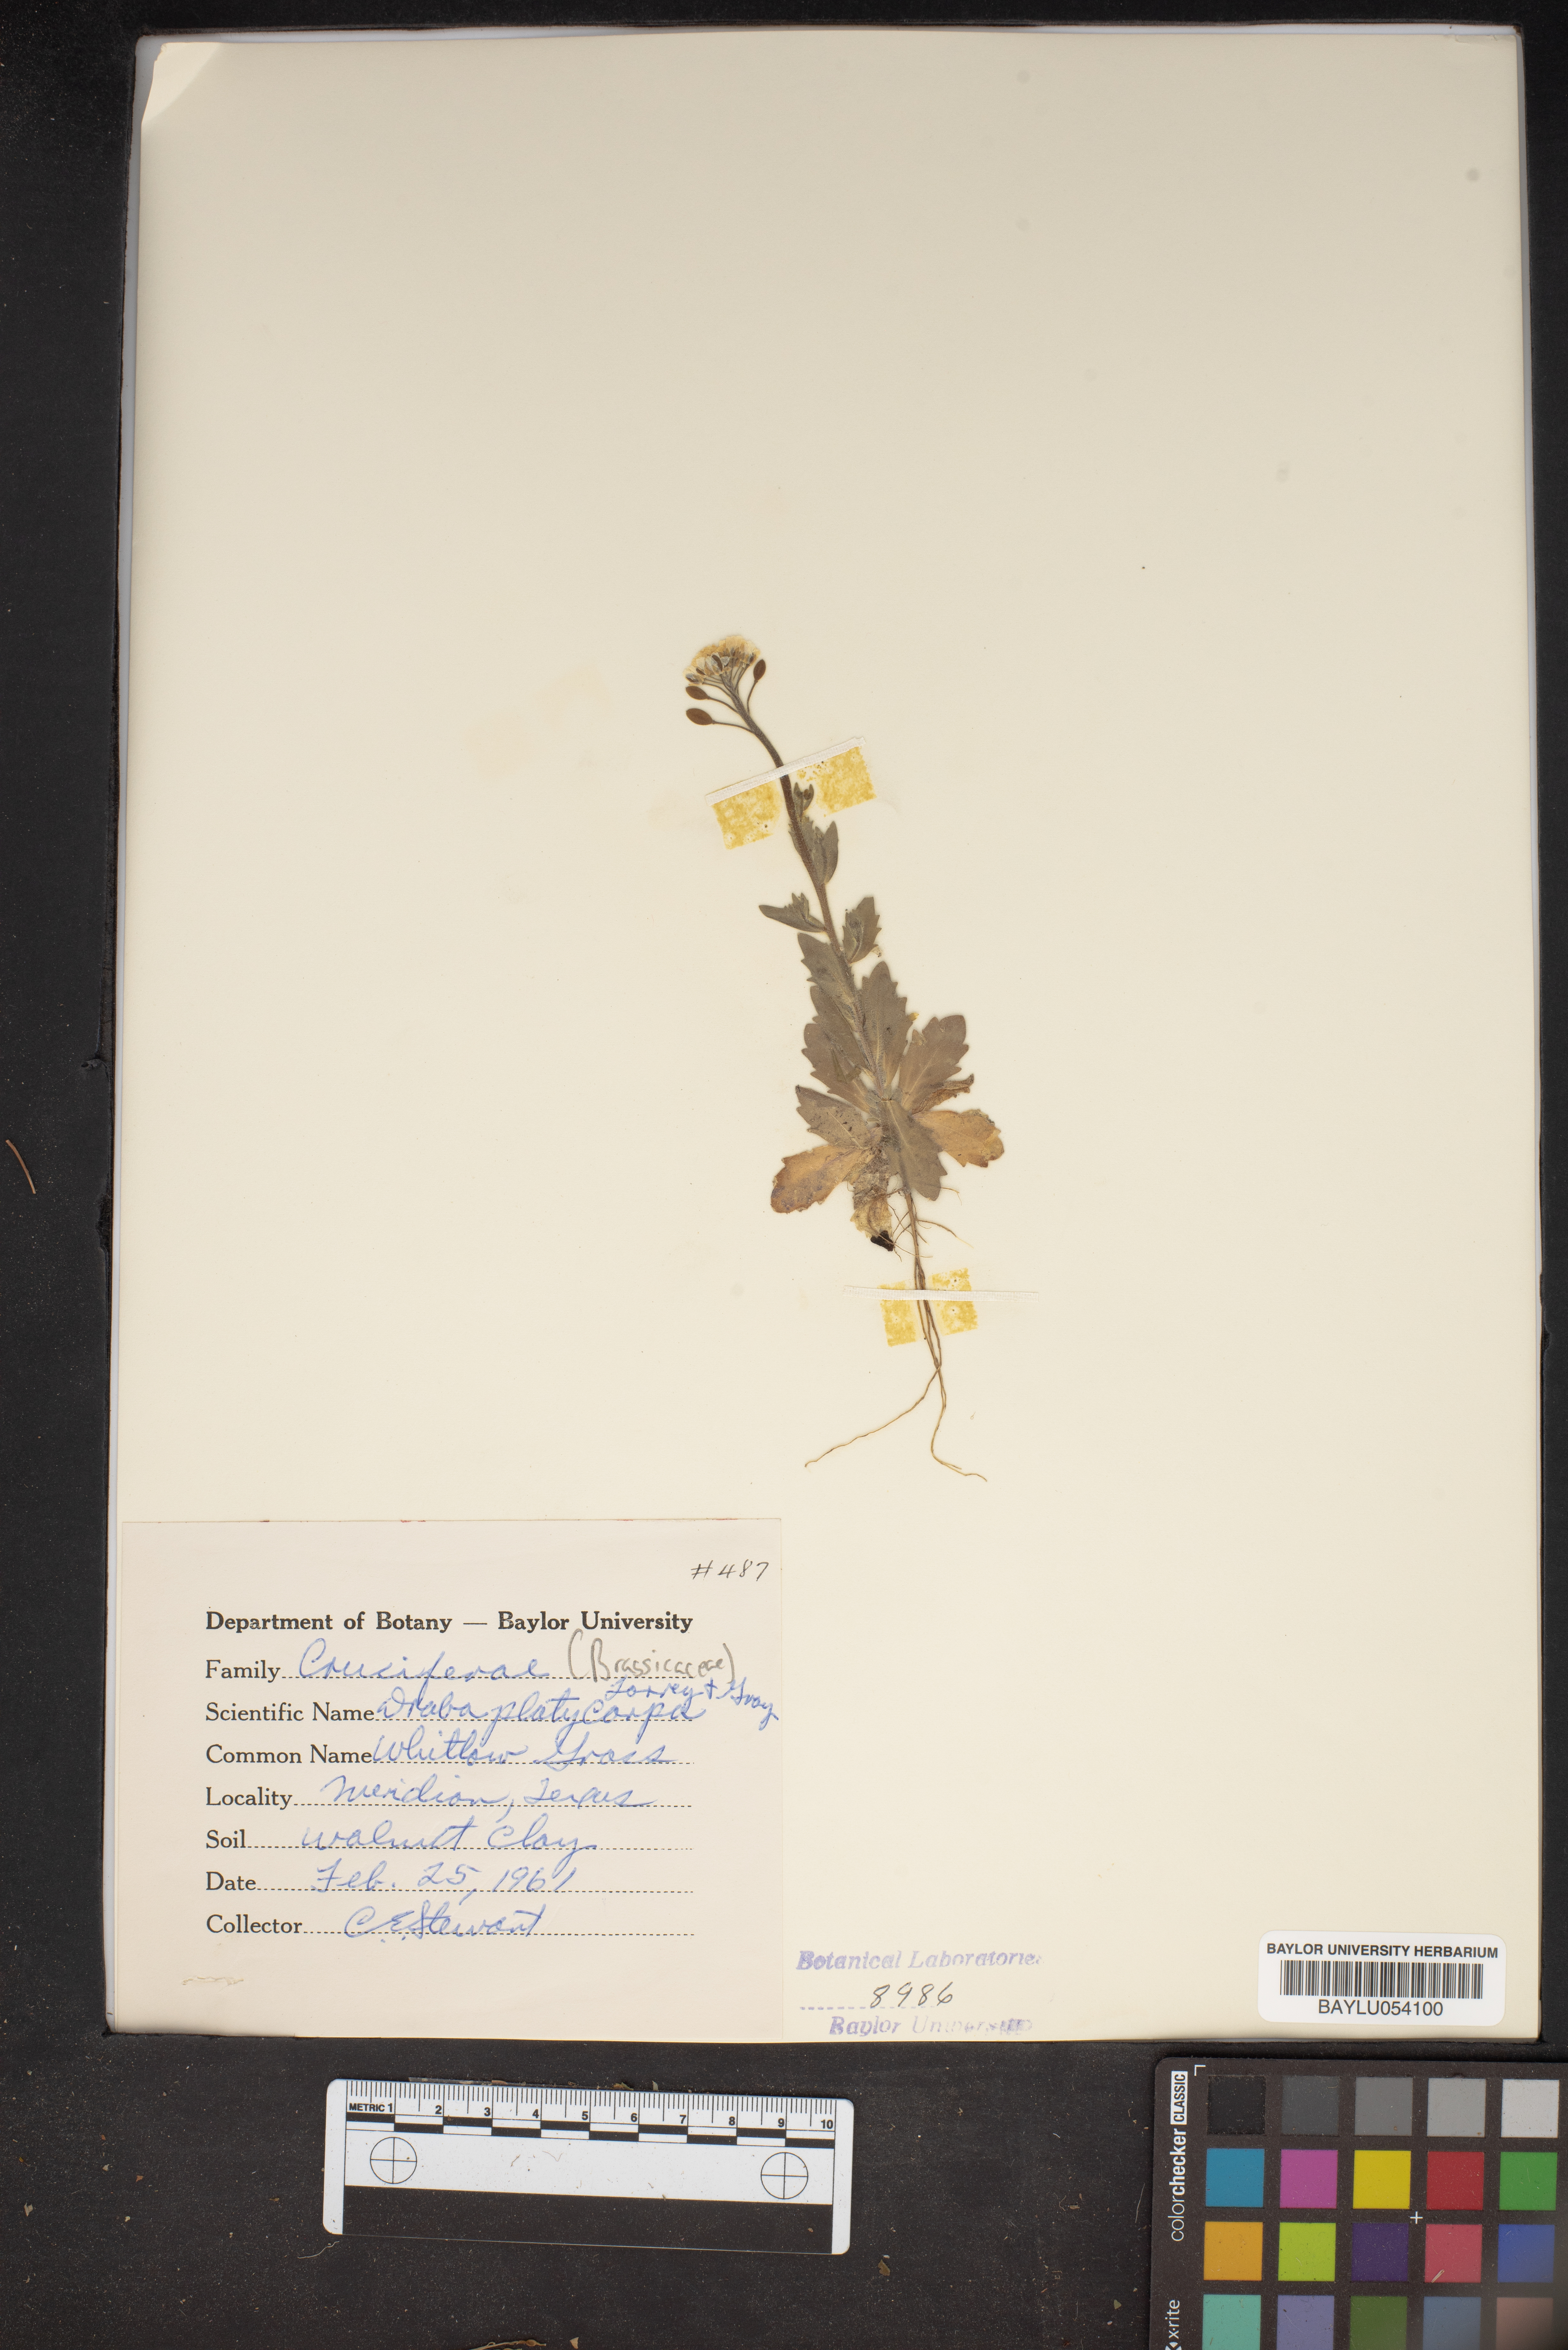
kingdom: Plantae
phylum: Tracheophyta
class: Magnoliopsida
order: Brassicales
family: Brassicaceae
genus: Tomostima
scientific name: Tomostima platycarpa
